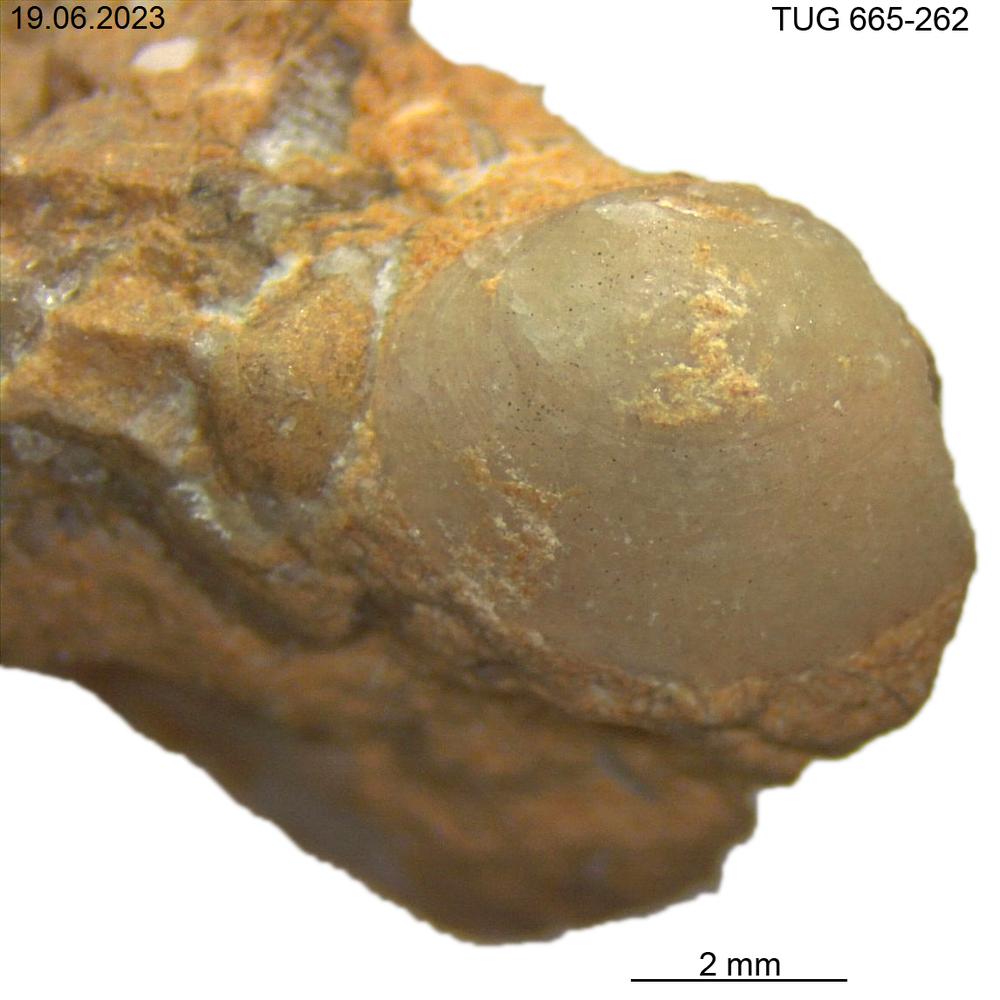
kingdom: Animalia
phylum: Mollusca
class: Bivalvia
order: Solemyida
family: Ctenodontidae
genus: Tancrediopsis
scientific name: Tancrediopsis
